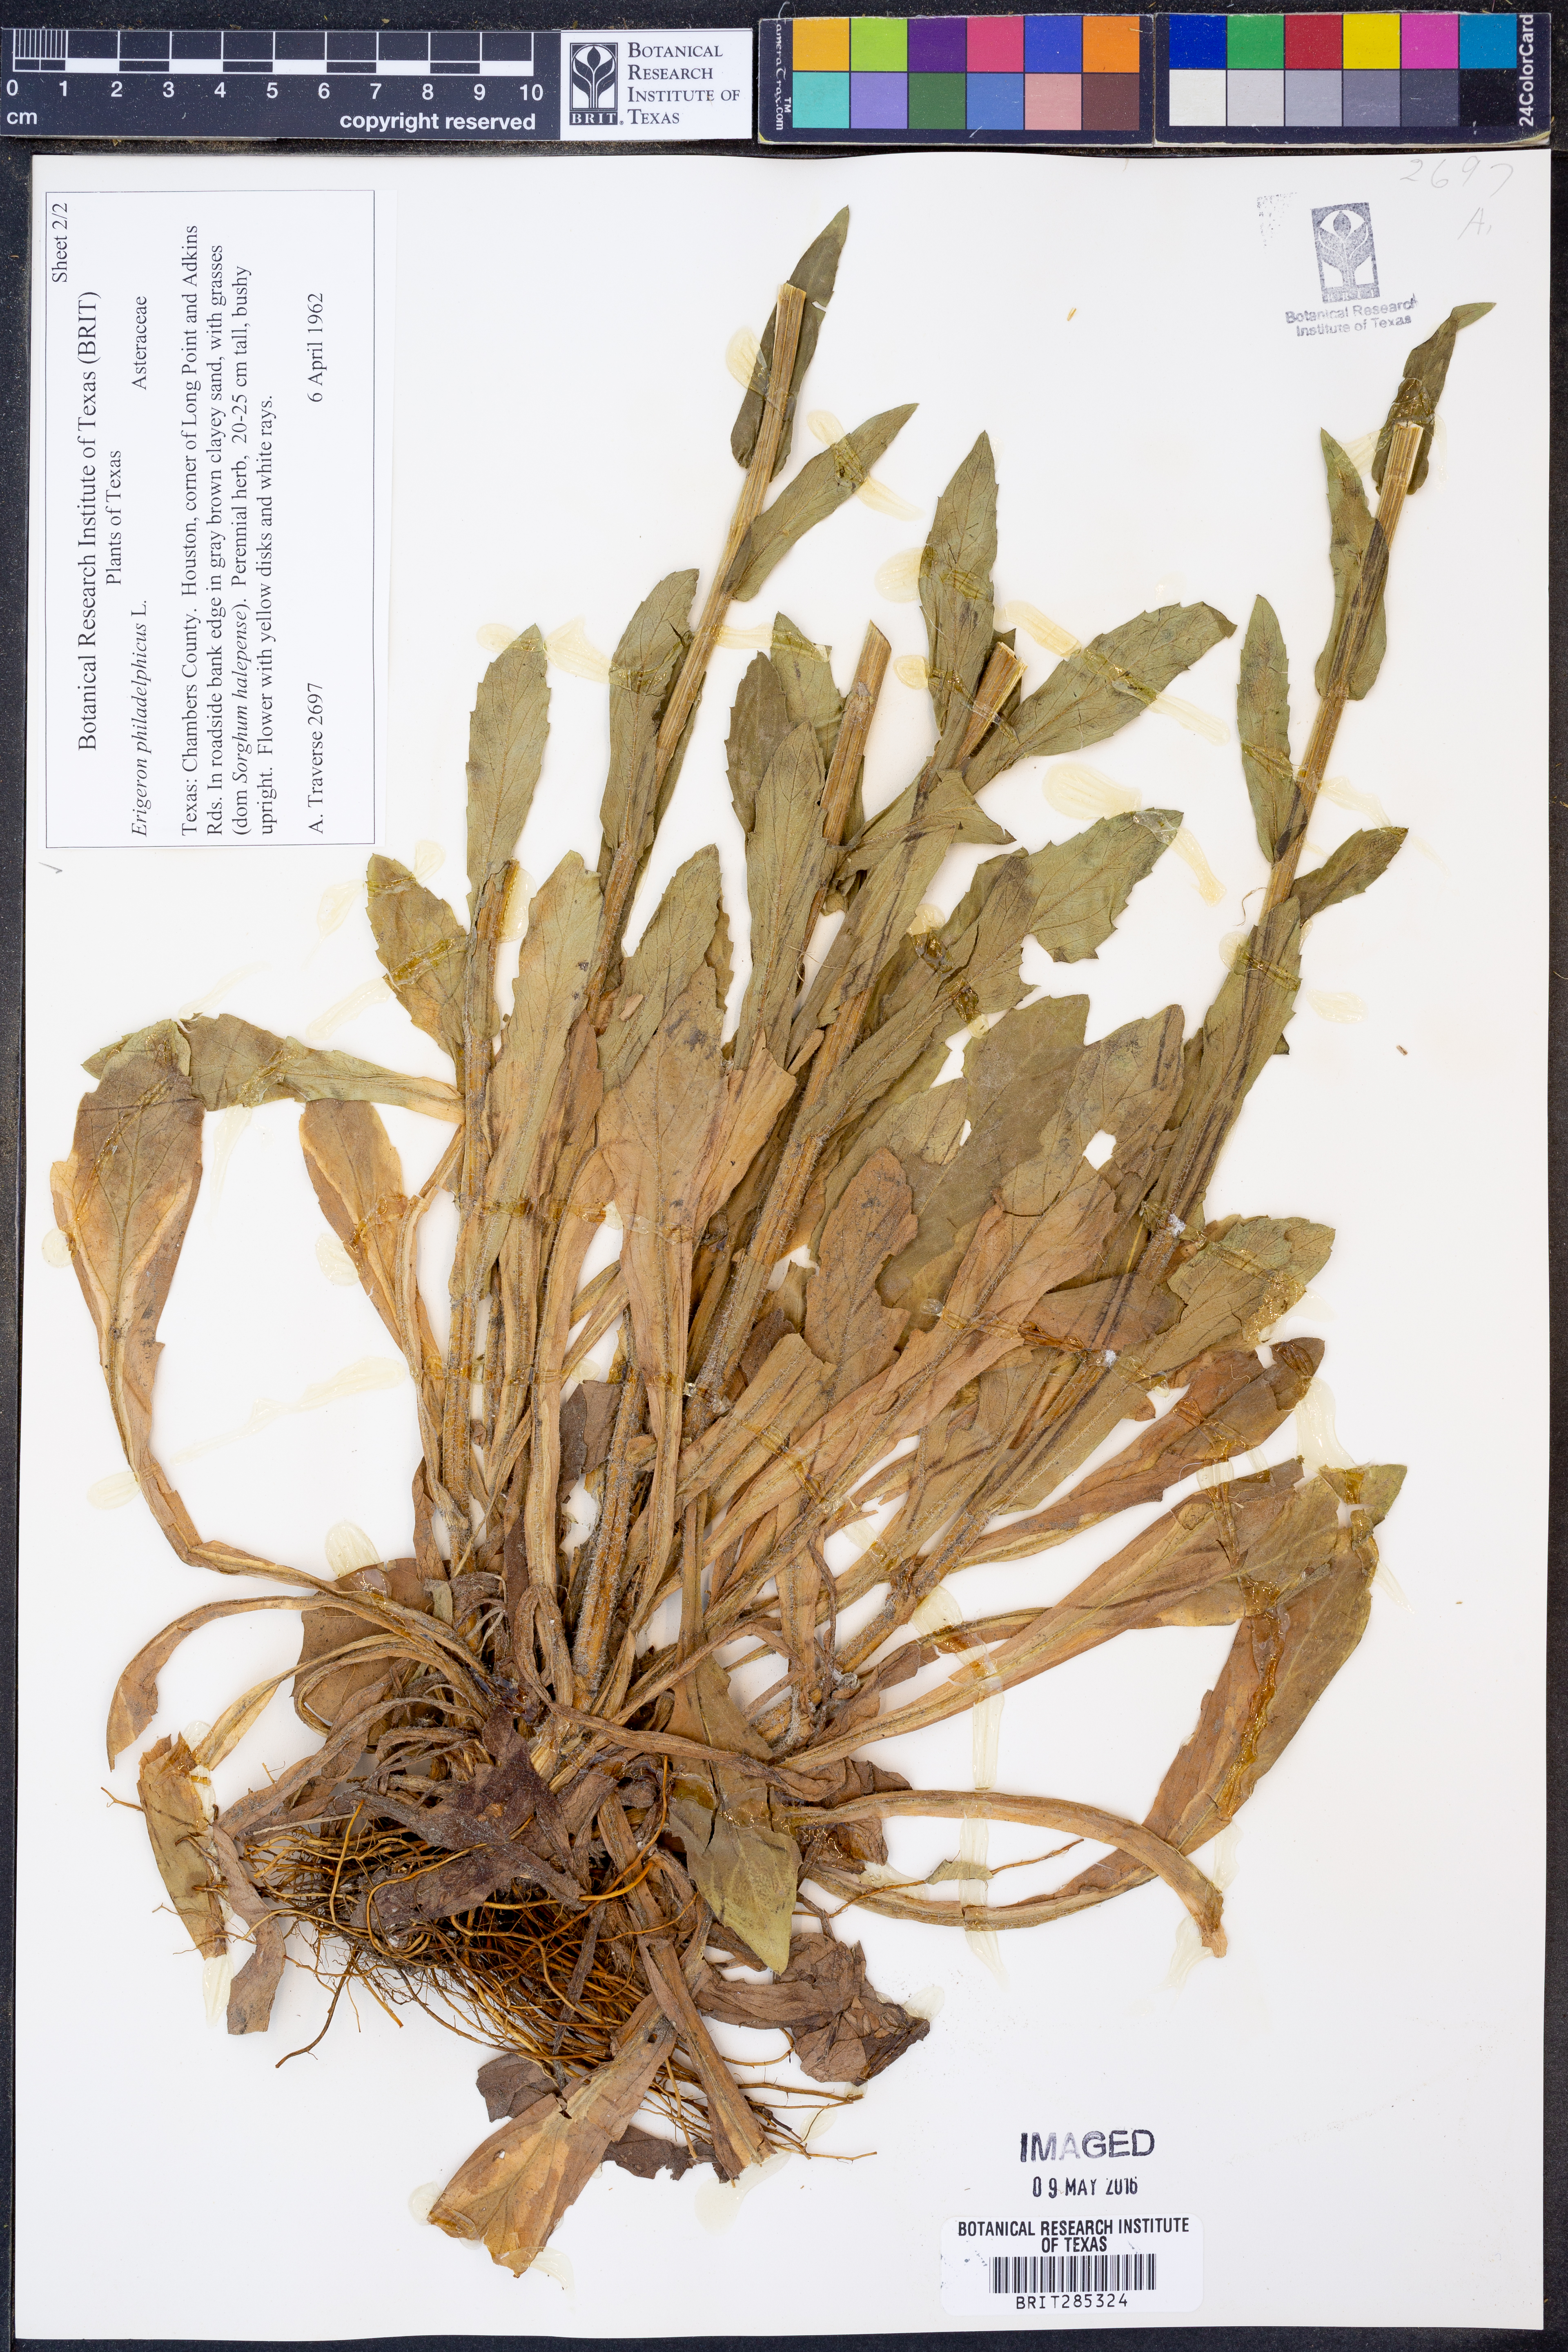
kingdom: Plantae
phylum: Tracheophyta
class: Magnoliopsida
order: Asterales
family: Asteraceae
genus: Erigeron
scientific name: Erigeron philadelphicus
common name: Robin's-plantain
